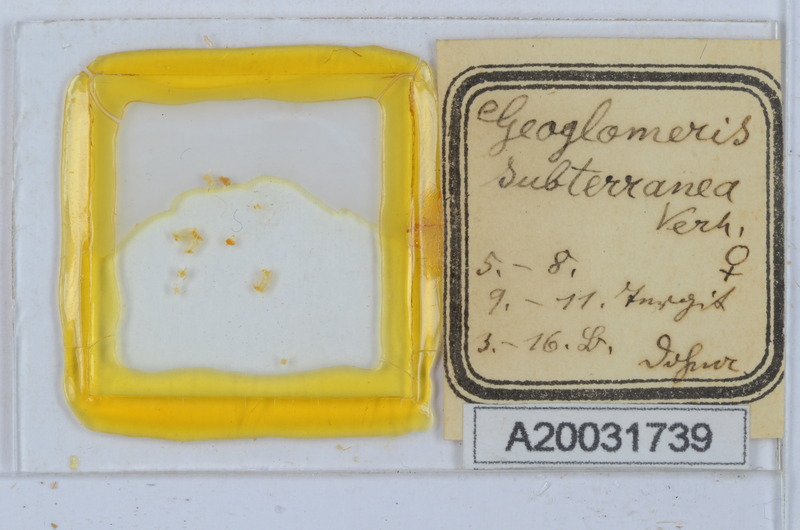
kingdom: Animalia
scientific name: Animalia
